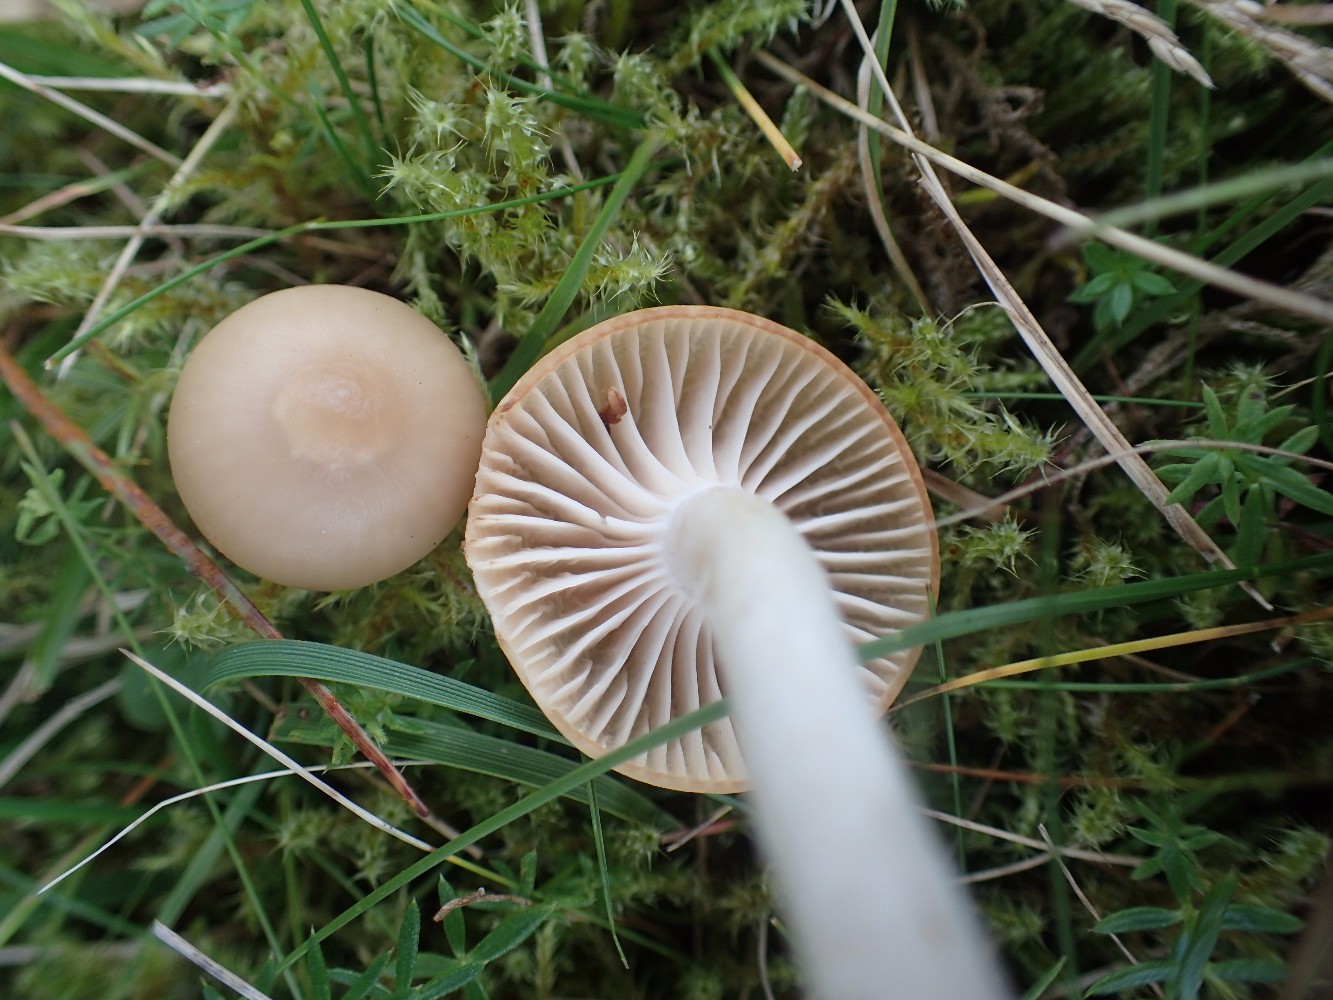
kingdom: Fungi
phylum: Basidiomycota
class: Agaricomycetes
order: Agaricales
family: Hygrophoraceae
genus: Cuphophyllus
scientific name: Cuphophyllus
